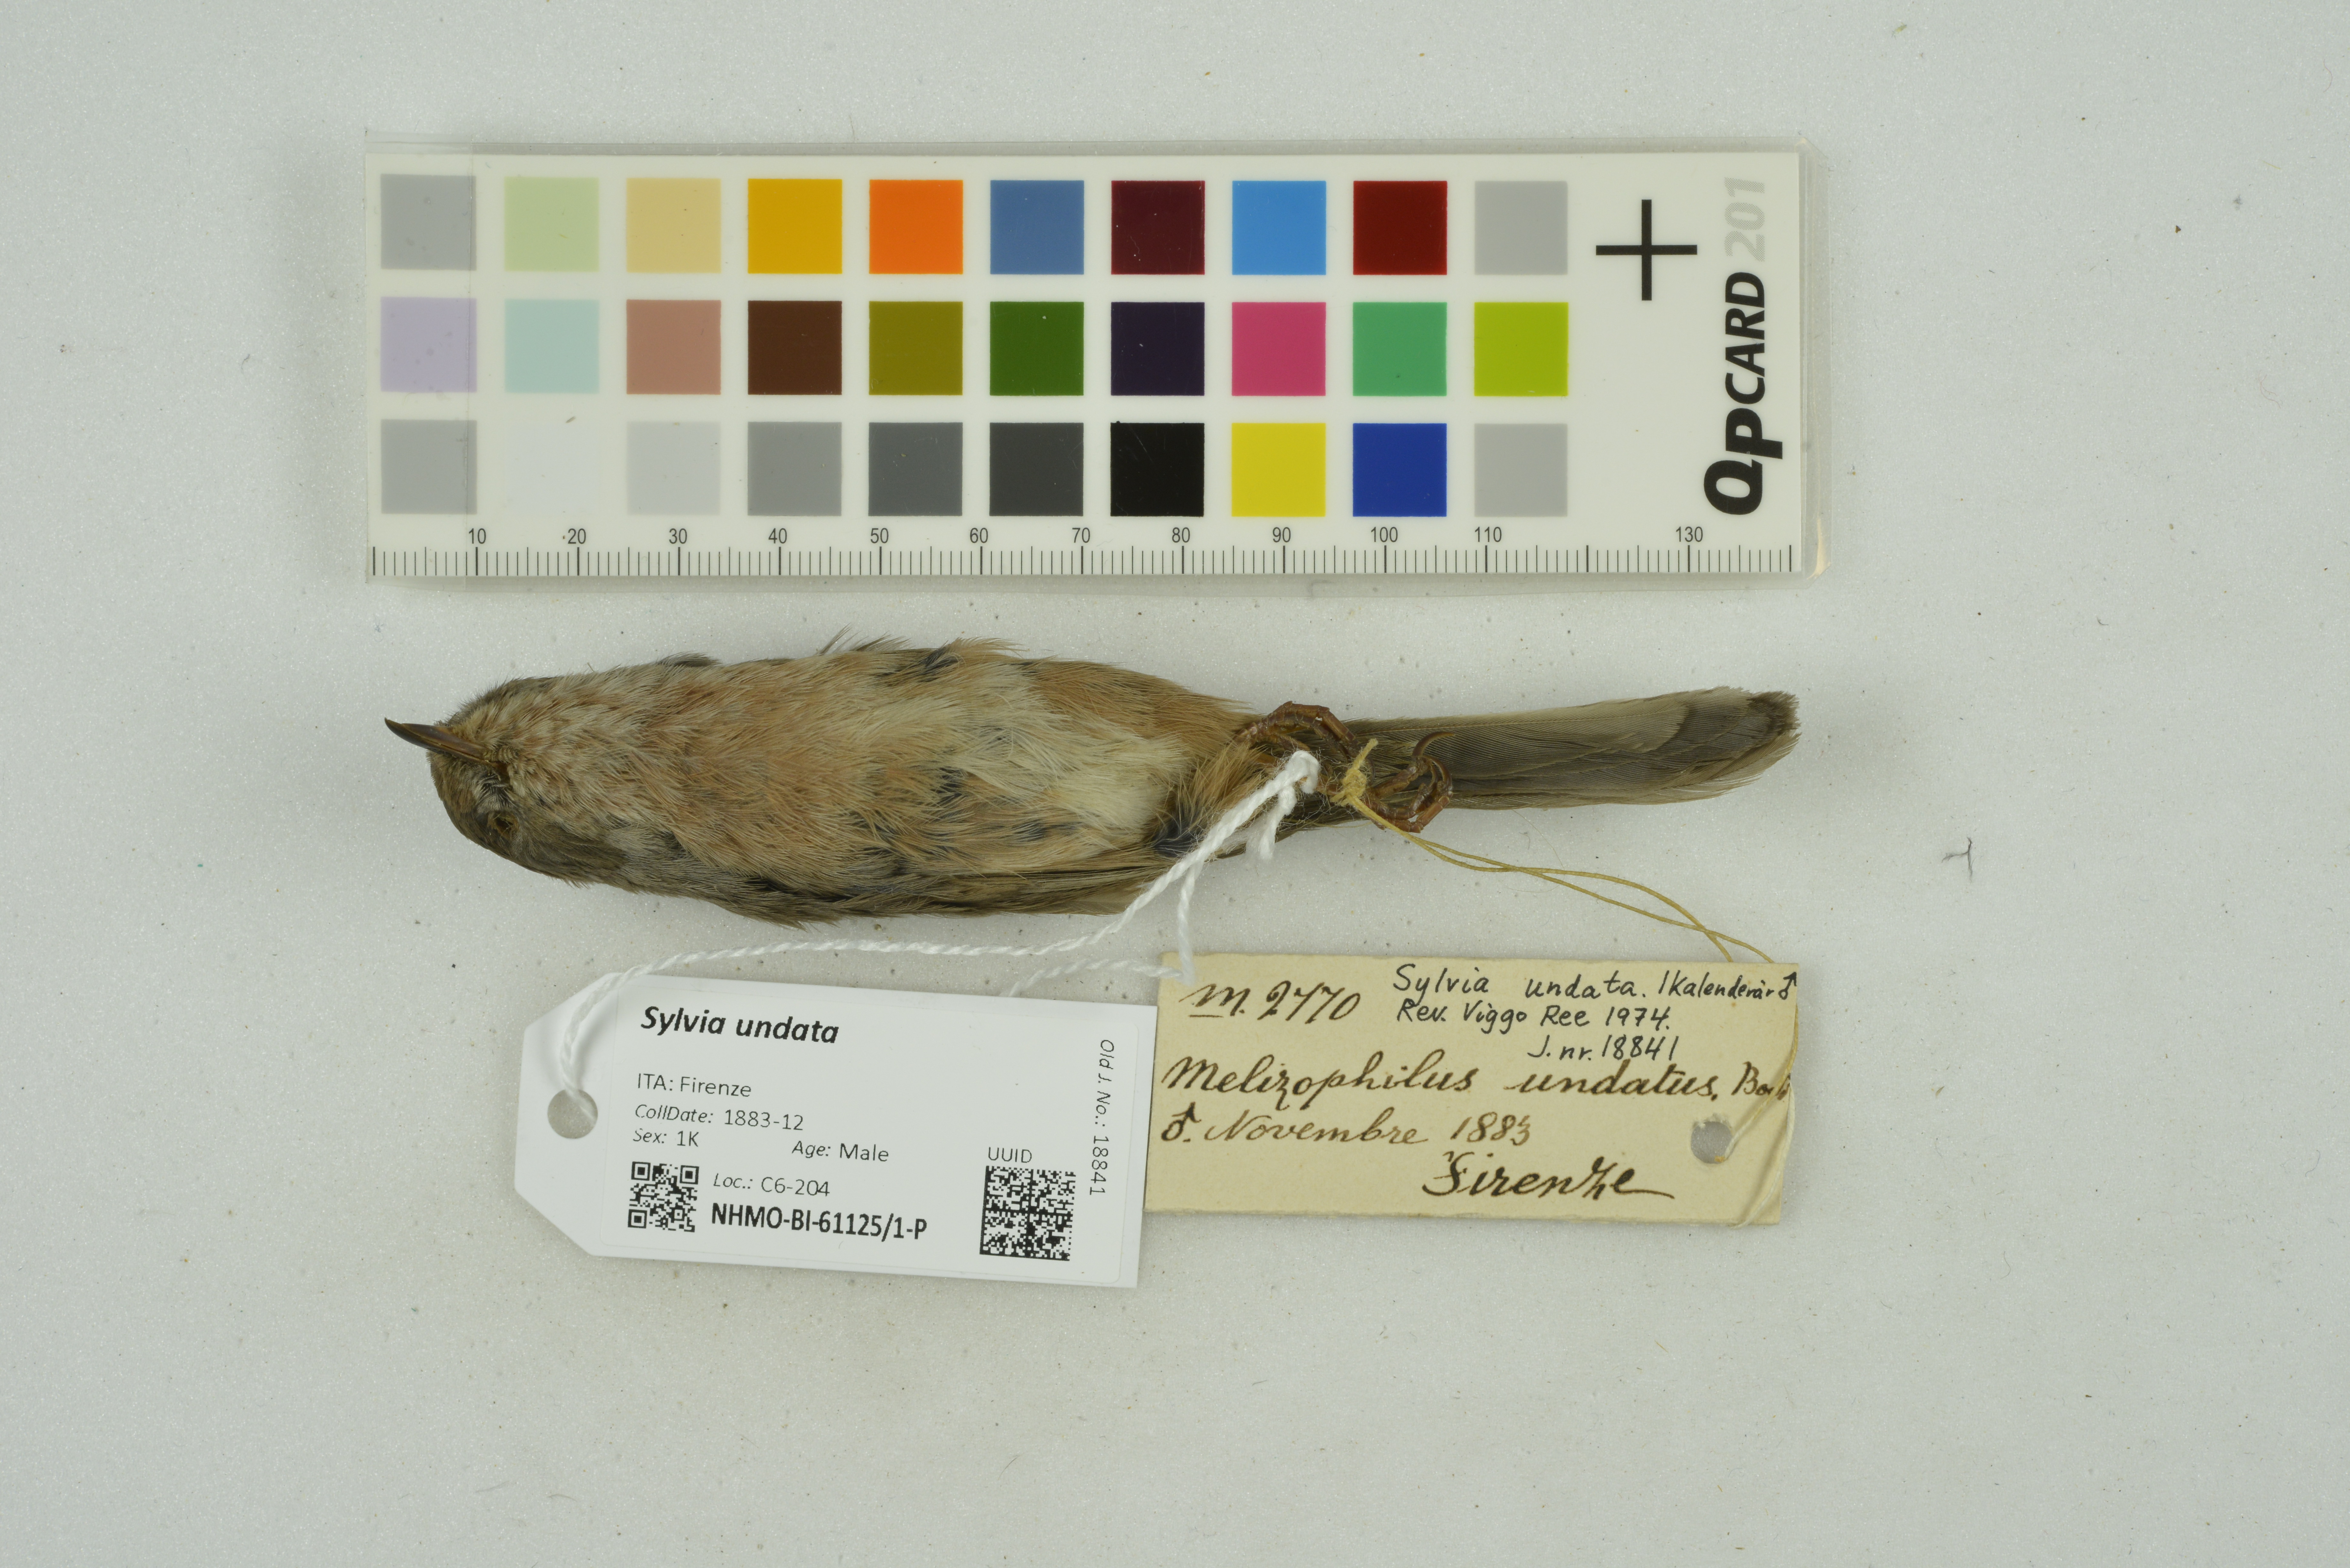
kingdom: Animalia
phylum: Chordata
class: Aves
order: Passeriformes
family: Sylviidae
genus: Sylvia
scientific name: Sylvia undata
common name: Dartford warbler
